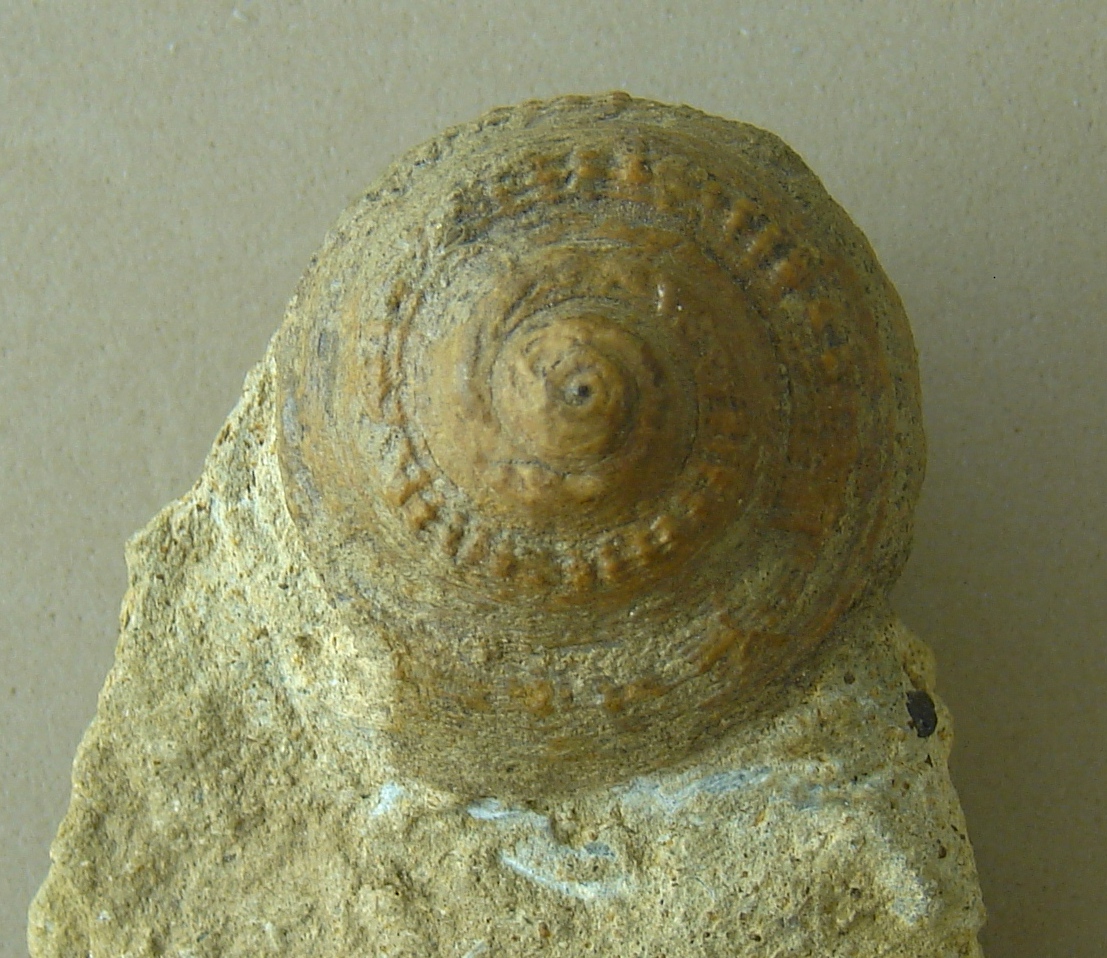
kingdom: Animalia
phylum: Mollusca
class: Gastropoda
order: Pleurotomariida
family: Pleurotomariidae
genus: Obornella
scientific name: Obornella Pleurotomaria lentiformis
